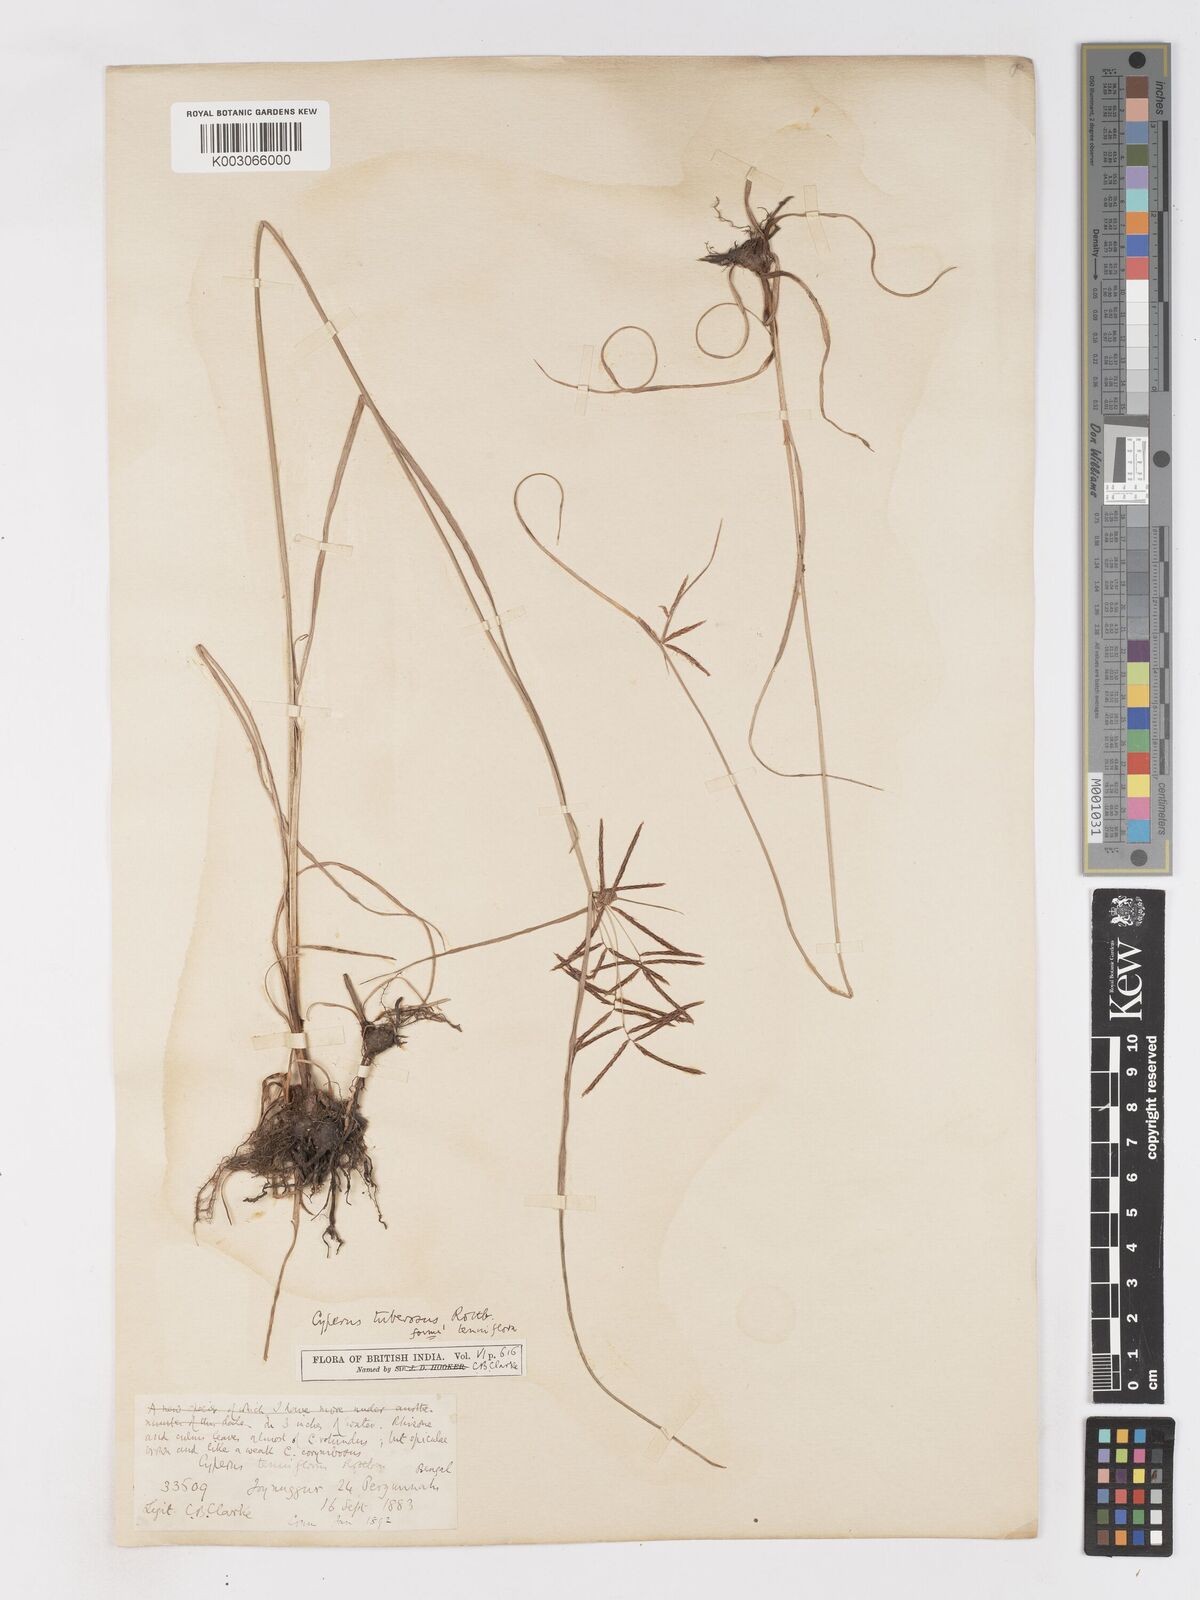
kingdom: Plantae
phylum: Tracheophyta
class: Liliopsida
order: Poales
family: Cyperaceae
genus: Cyperus
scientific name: Cyperus mitis
